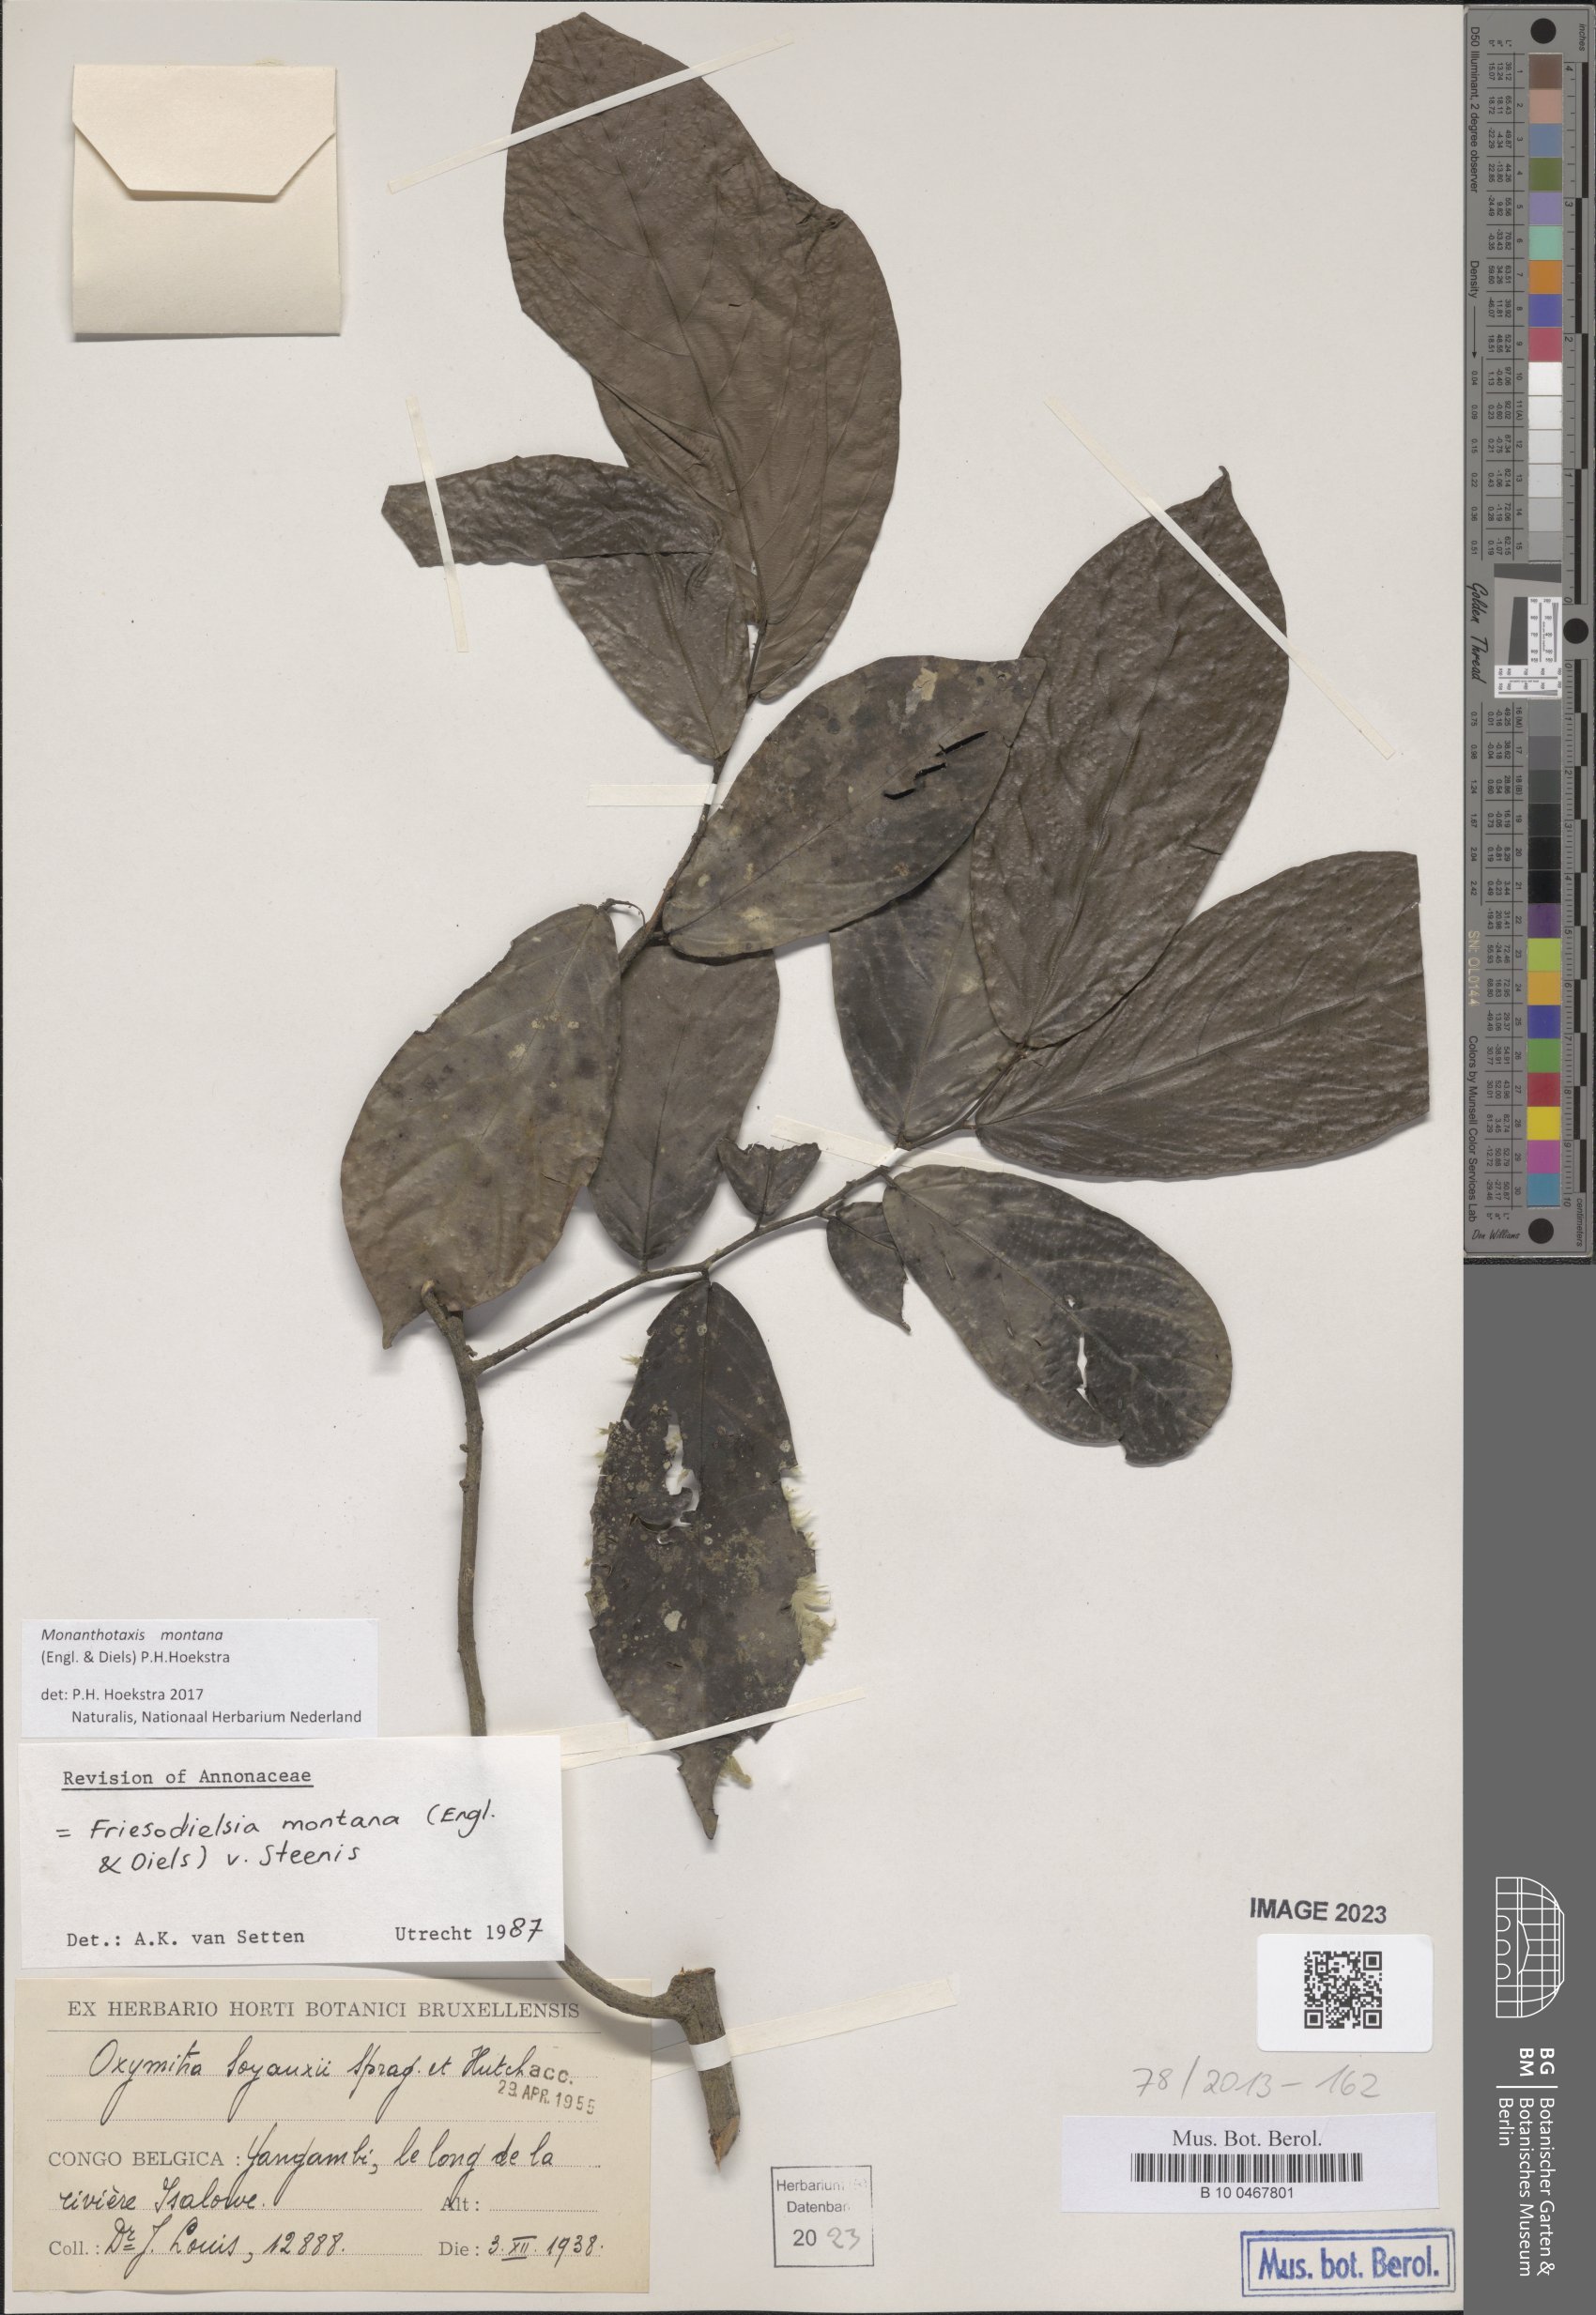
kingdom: Plantae
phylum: Tracheophyta
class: Magnoliopsida
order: Magnoliales
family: Annonaceae
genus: Friesodielsia
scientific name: Friesodielsia montana
